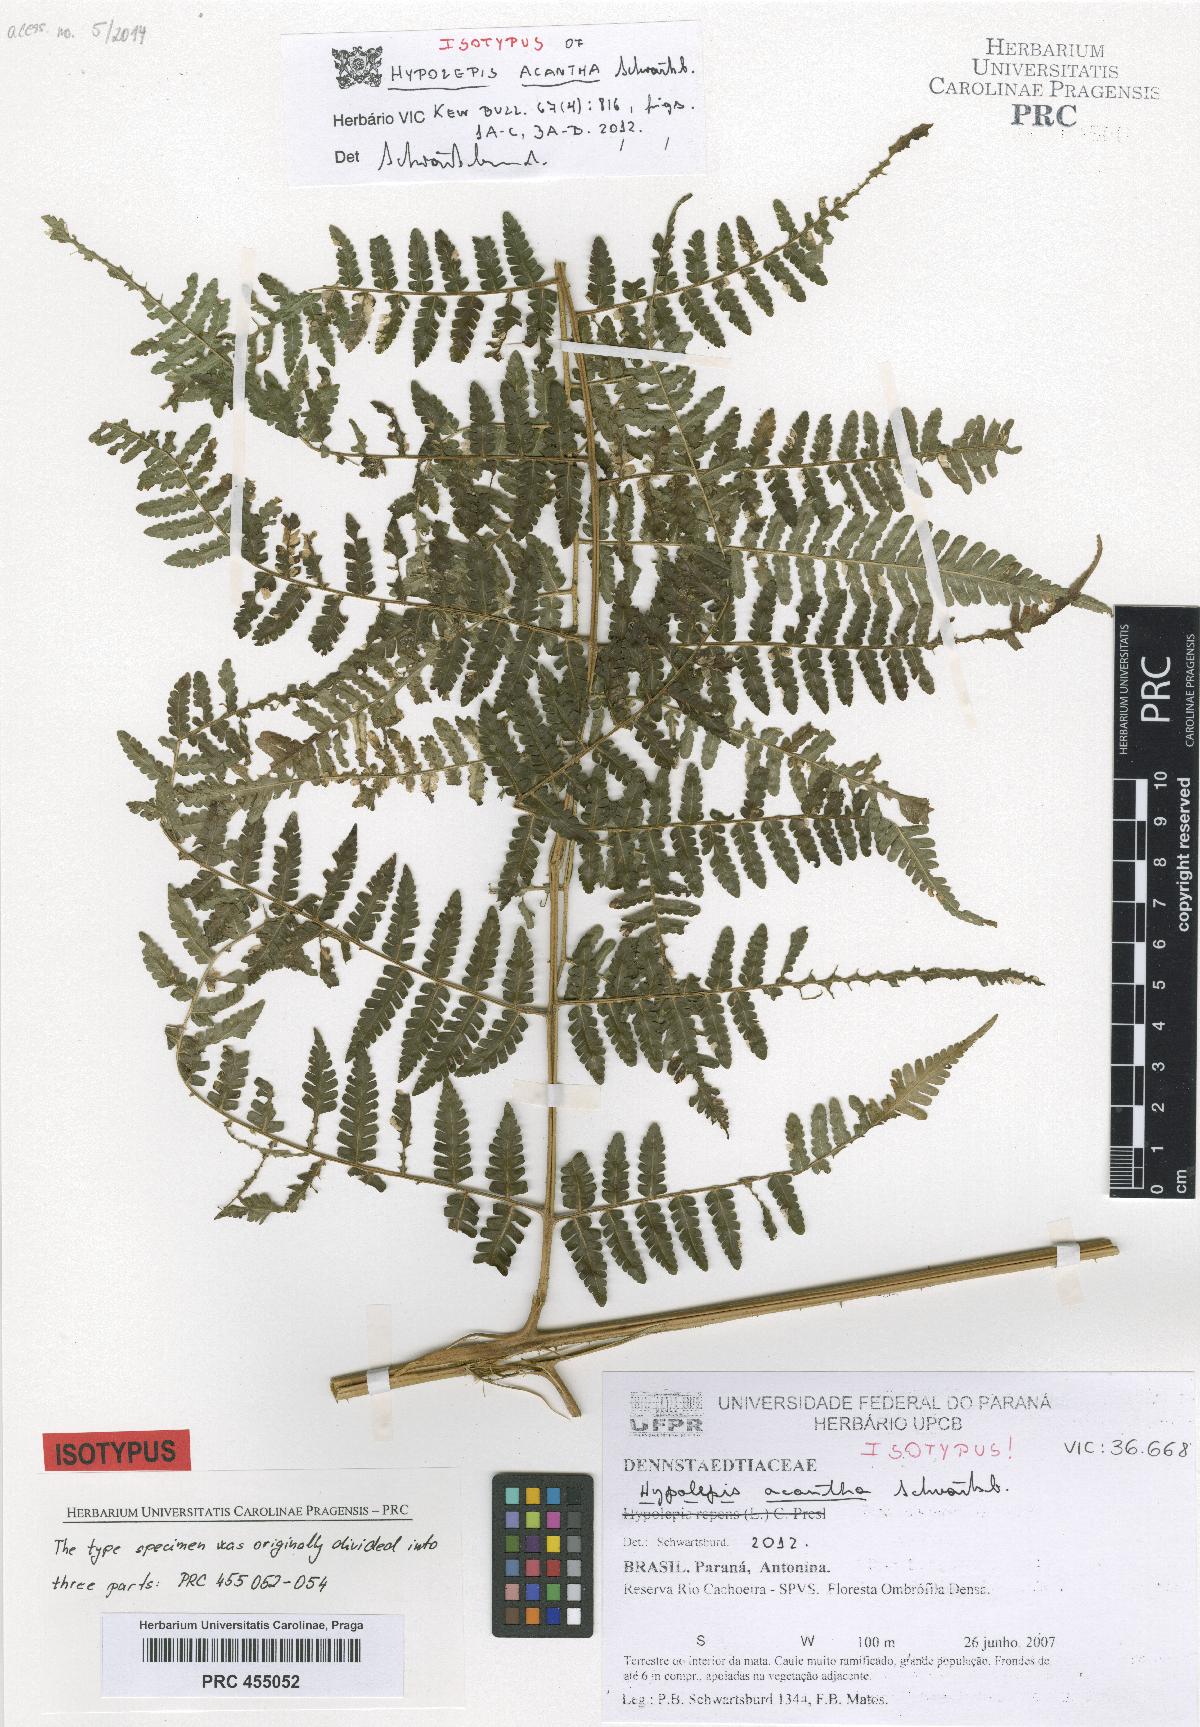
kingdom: Plantae
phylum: Tracheophyta
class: Polypodiopsida
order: Polypodiales
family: Dennstaedtiaceae
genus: Hypolepis
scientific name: Hypolepis acantha
